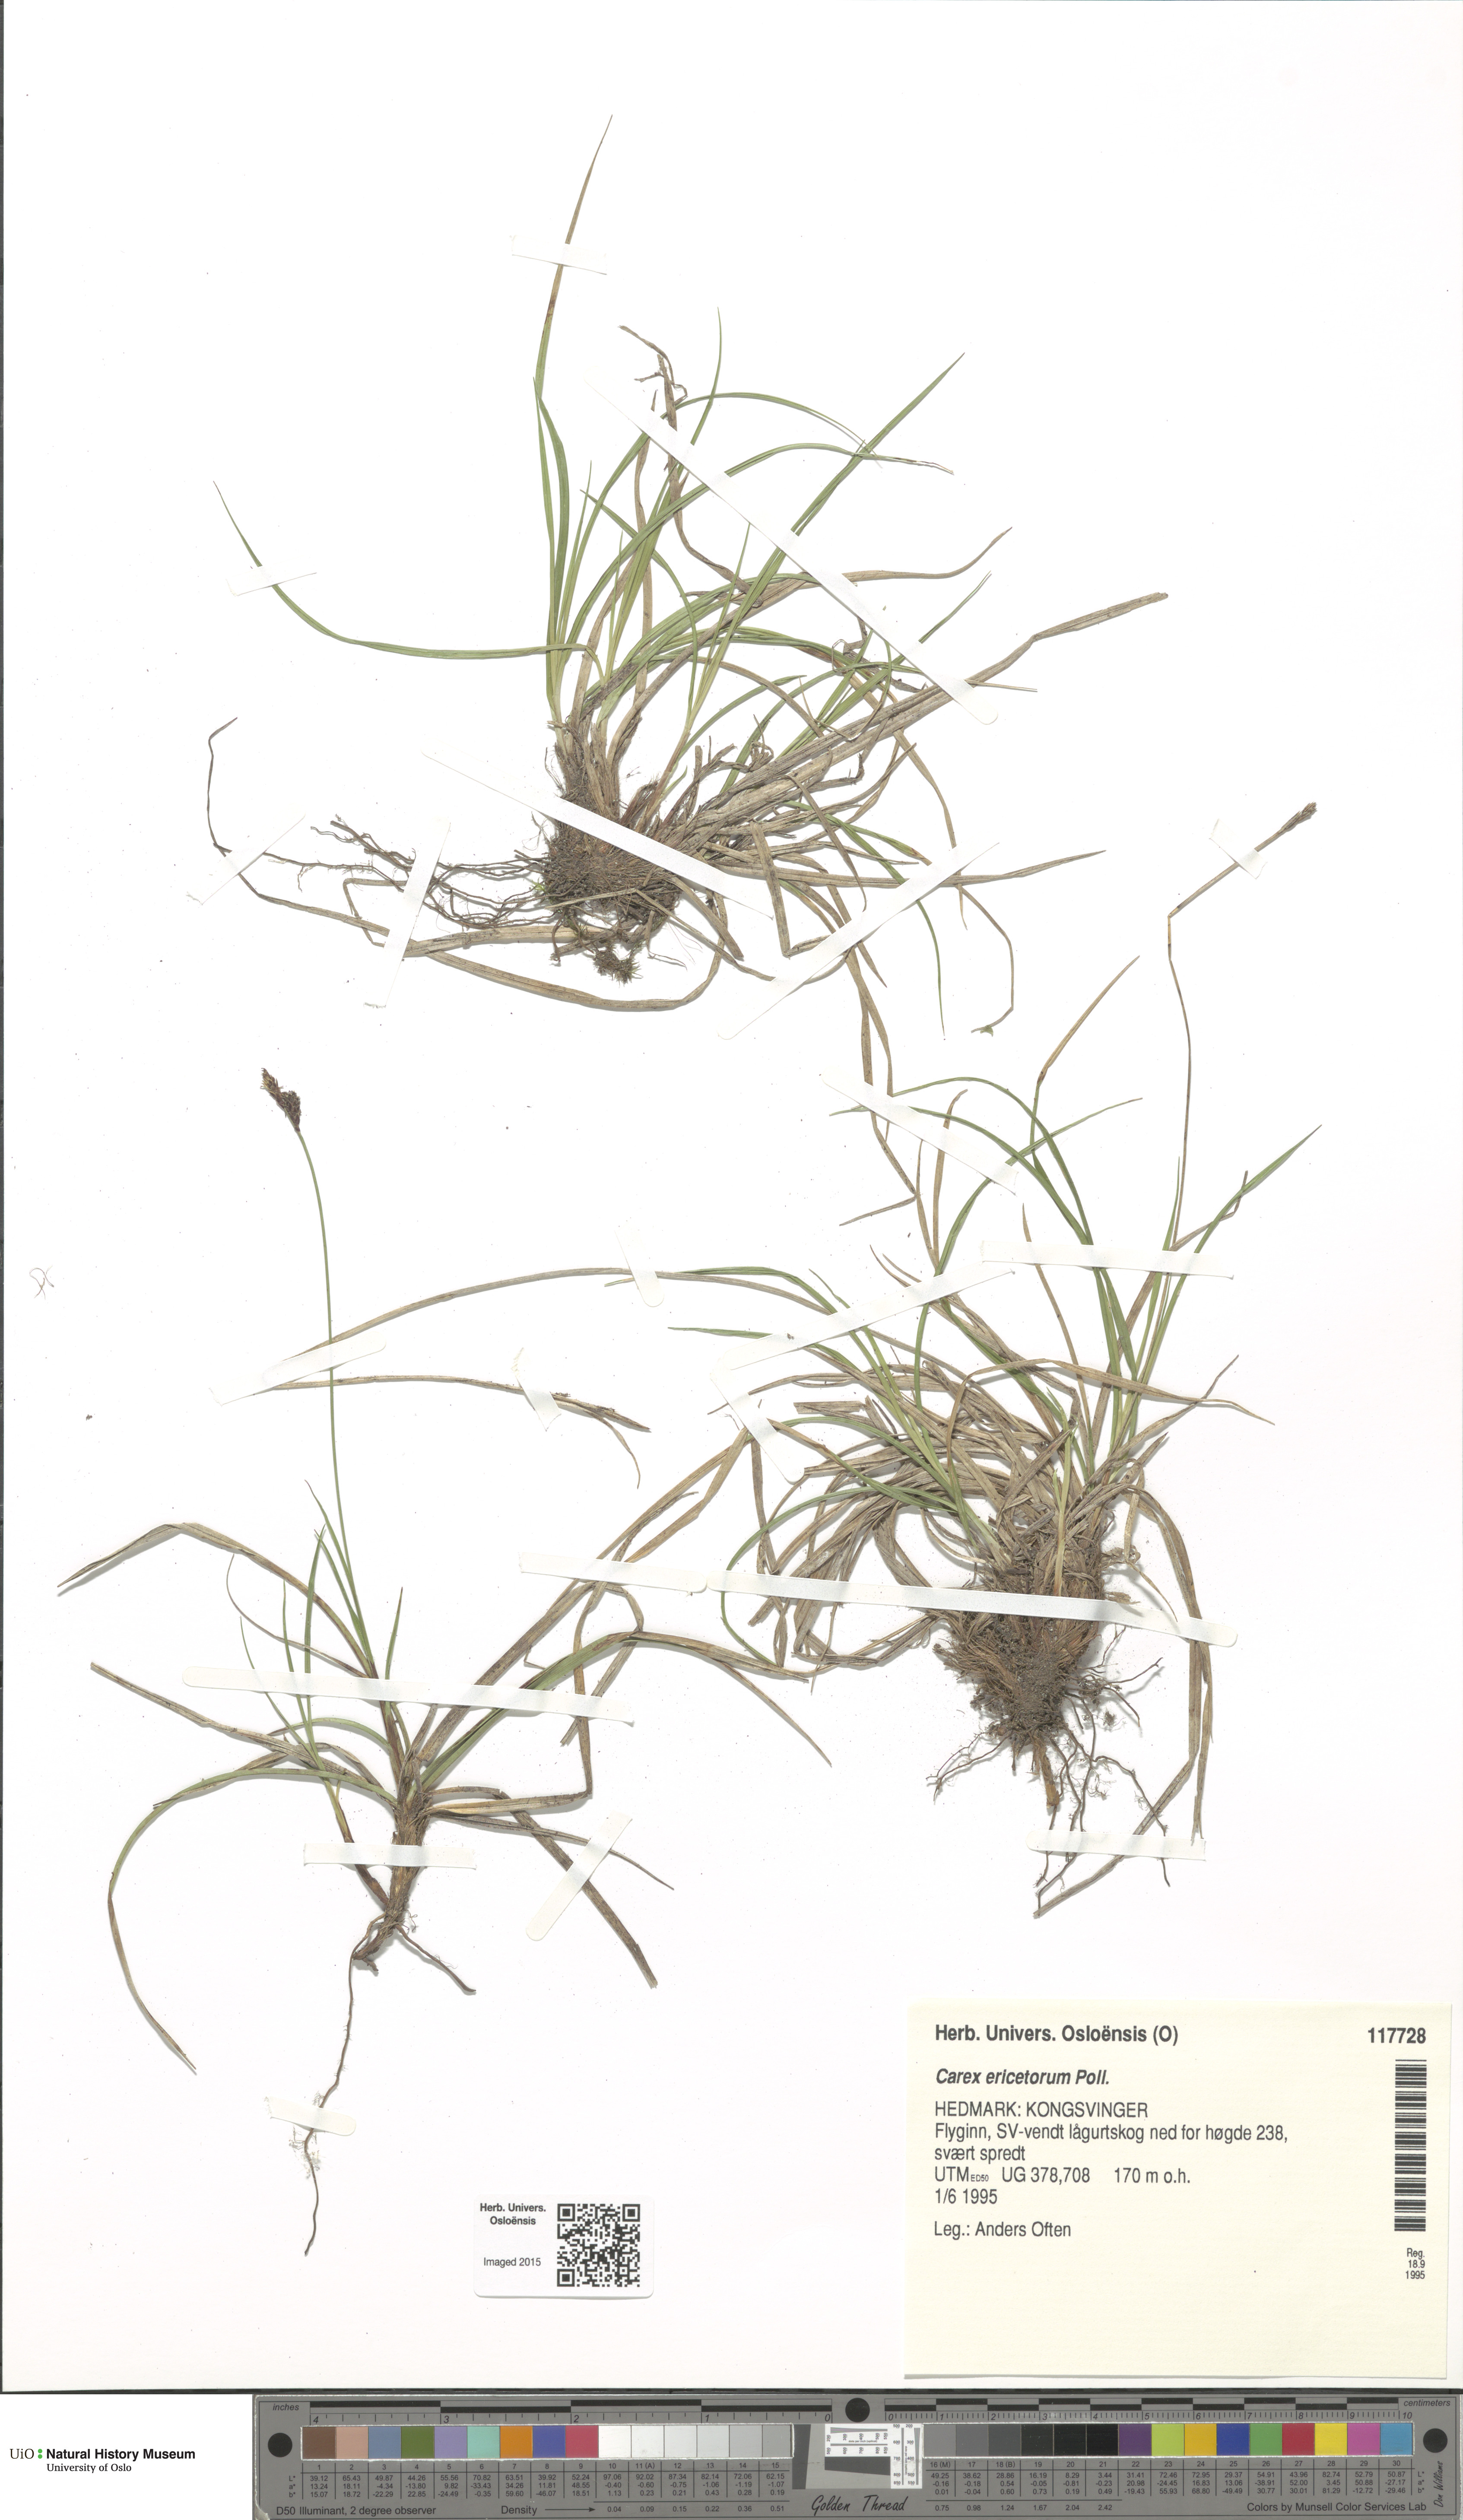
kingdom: Plantae
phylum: Tracheophyta
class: Liliopsida
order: Poales
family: Cyperaceae
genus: Carex
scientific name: Carex ericetorum
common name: Rare spring-sedge
